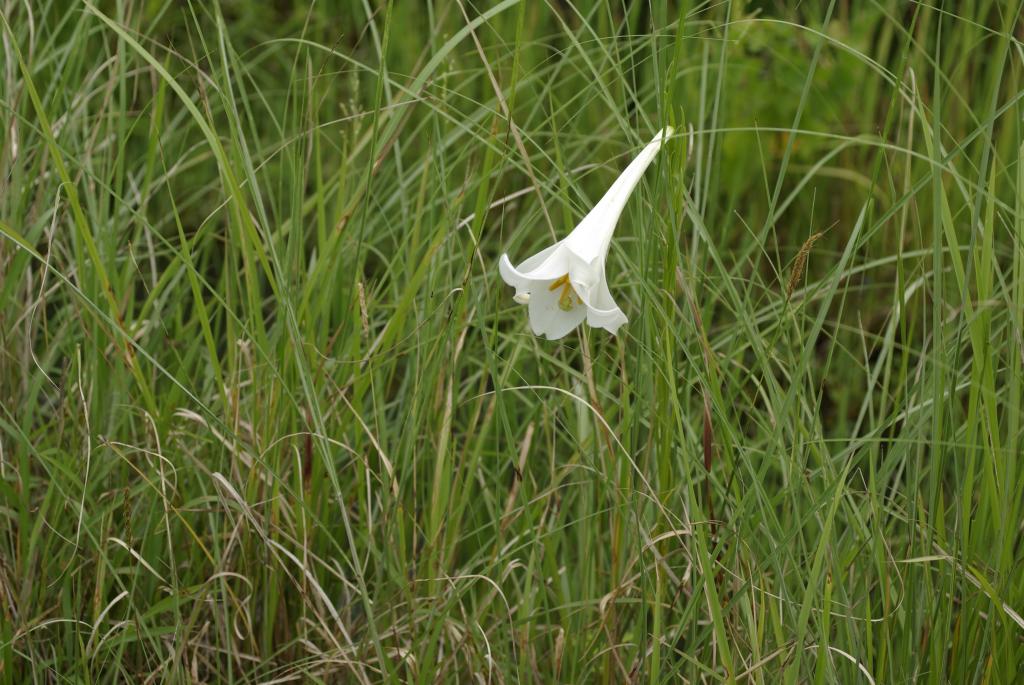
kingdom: Plantae
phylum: Tracheophyta
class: Liliopsida
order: Liliales
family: Liliaceae
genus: Lilium
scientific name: Lilium formosanum
